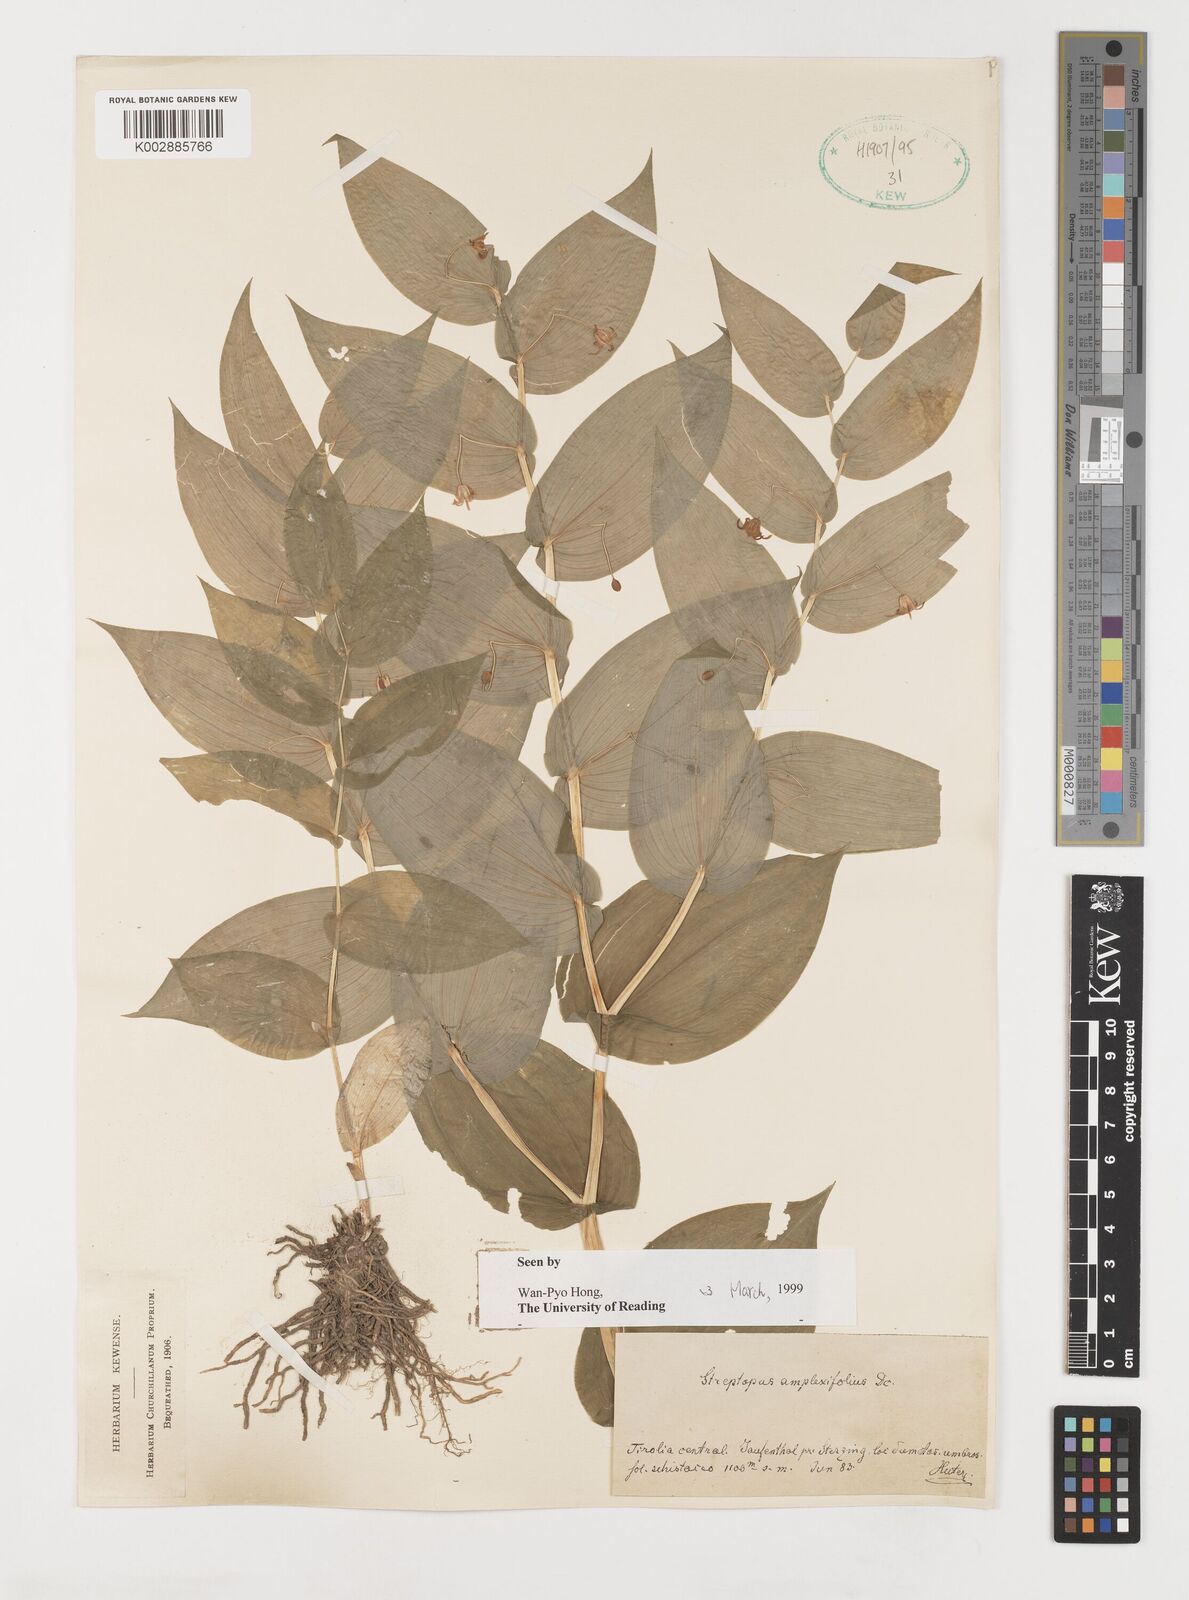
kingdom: Plantae
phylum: Tracheophyta
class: Liliopsida
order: Liliales
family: Liliaceae
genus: Streptopus
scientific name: Streptopus amplexifolius
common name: Clasp twisted stalk
